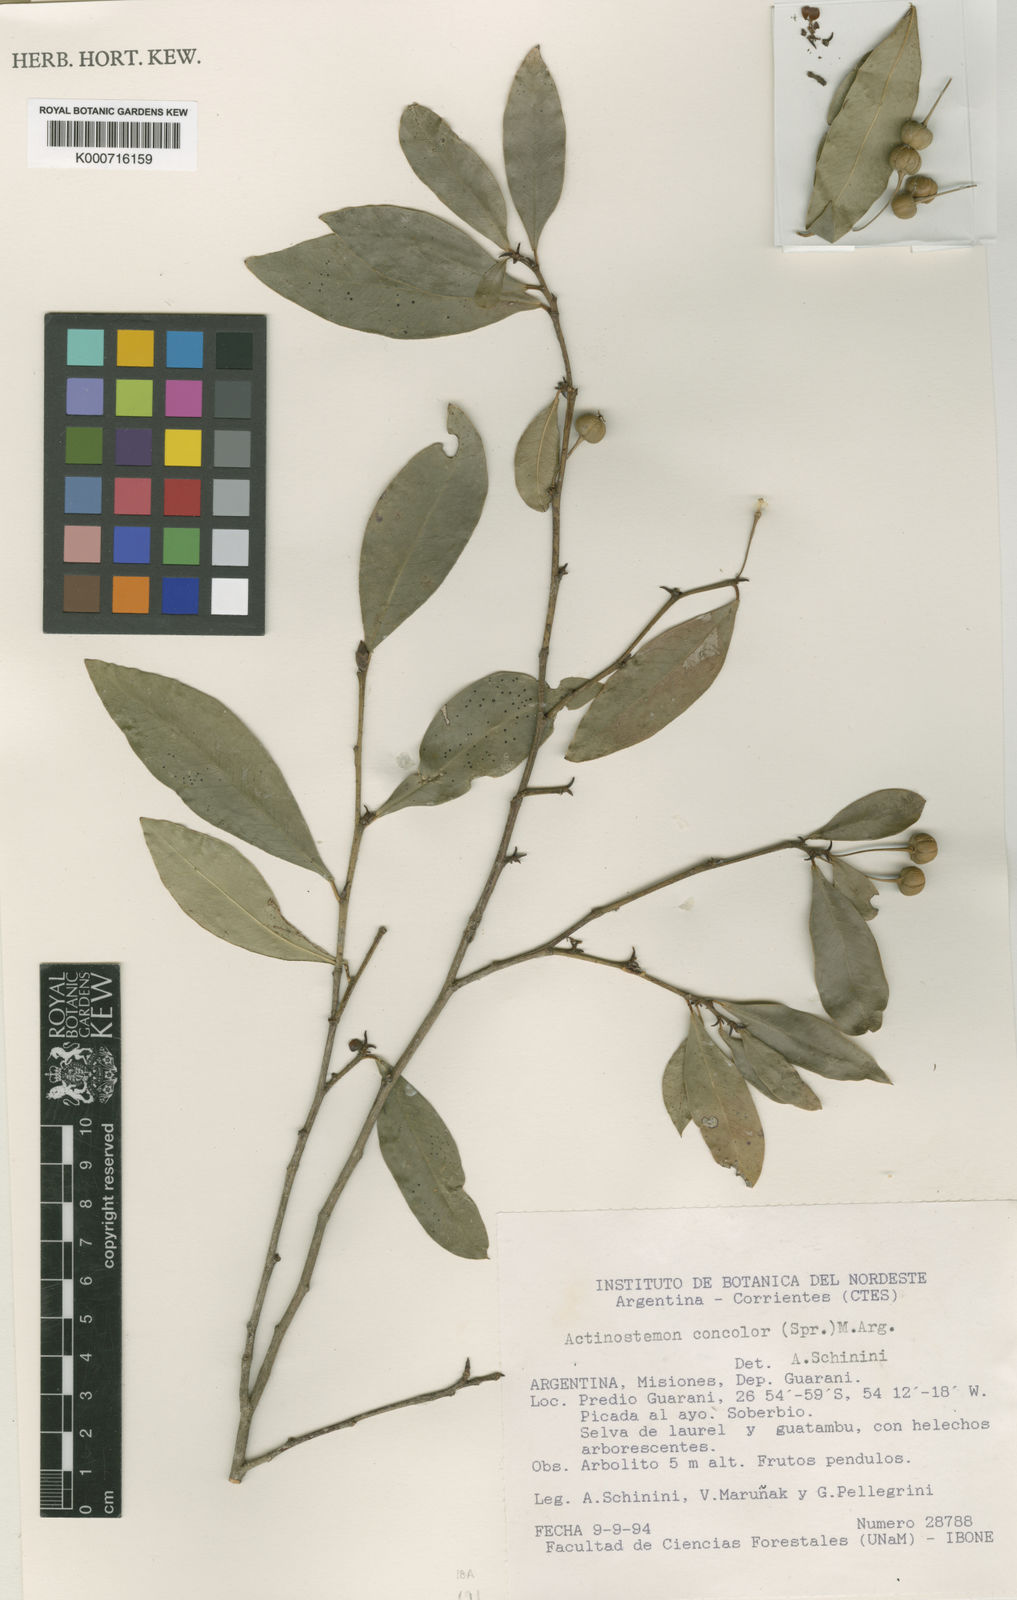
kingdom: Plantae
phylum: Tracheophyta
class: Magnoliopsida
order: Malpighiales
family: Euphorbiaceae
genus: Actinostemon
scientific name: Actinostemon
